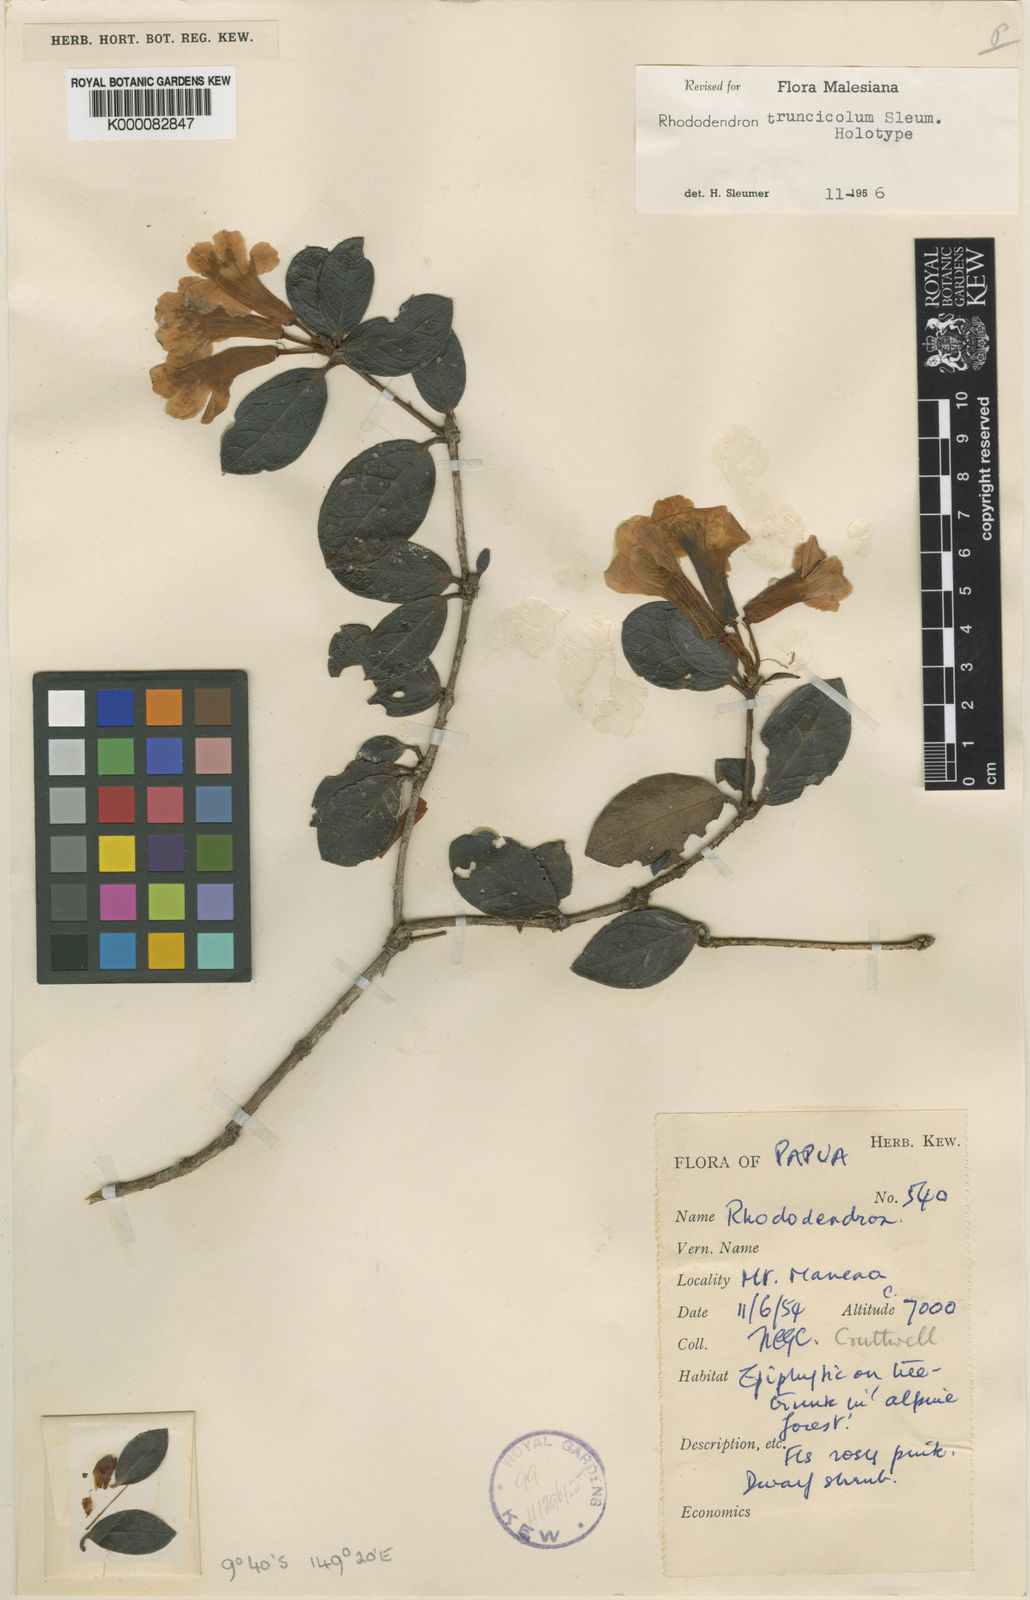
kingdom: Plantae
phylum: Tracheophyta
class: Magnoliopsida
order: Ericales
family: Ericaceae
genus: Rhododendron
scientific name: Rhododendron truncicola
